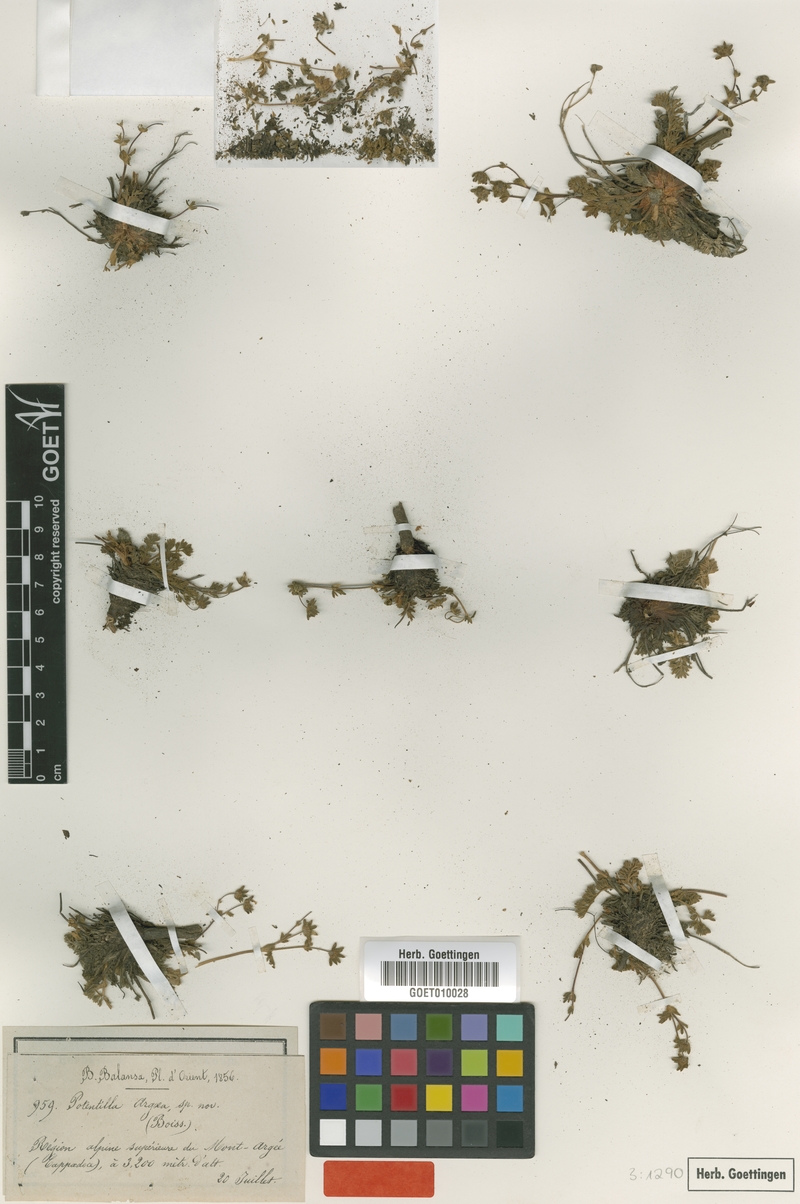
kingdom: Plantae
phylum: Tracheophyta
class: Magnoliopsida
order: Rosales
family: Rosaceae
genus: Potentilla
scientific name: Potentilla argaea
